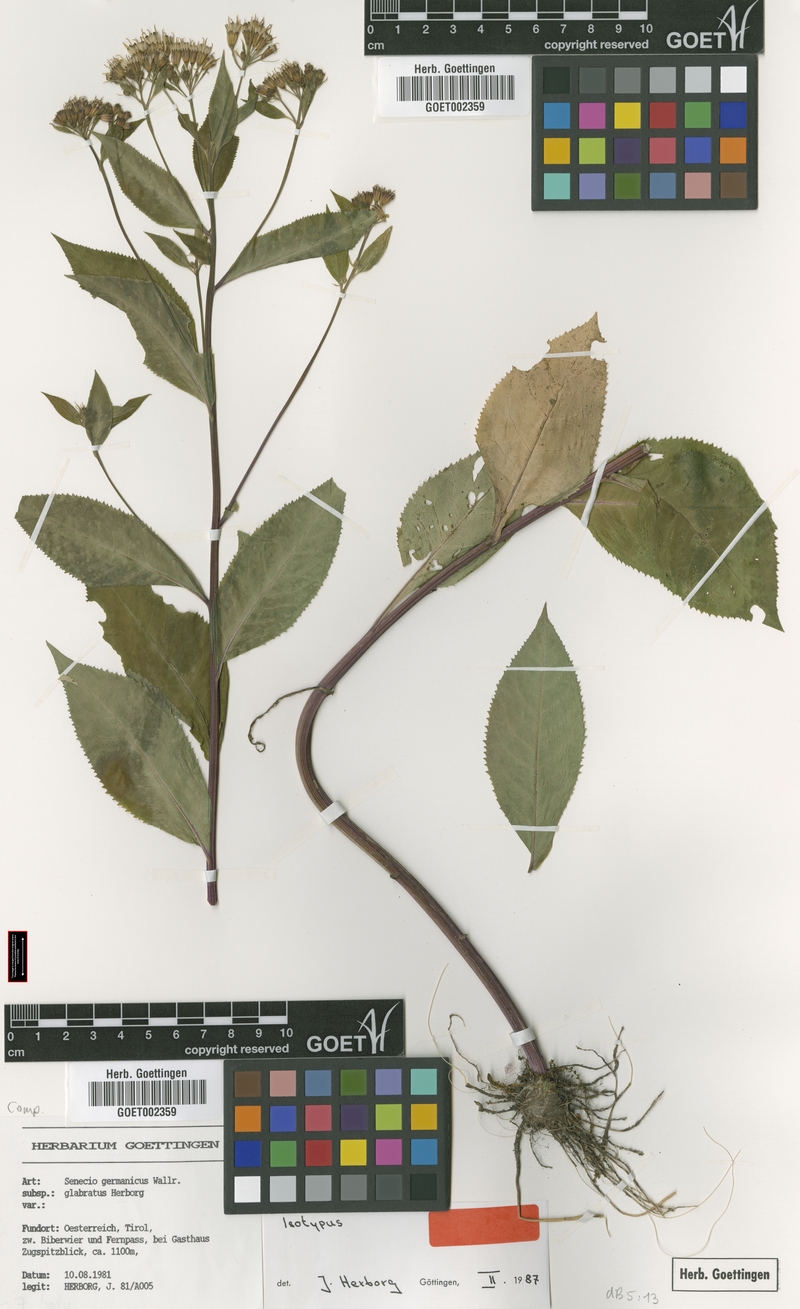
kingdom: Plantae
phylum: Tracheophyta
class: Magnoliopsida
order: Asterales
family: Asteraceae
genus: Senecio
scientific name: Senecio germanicus
